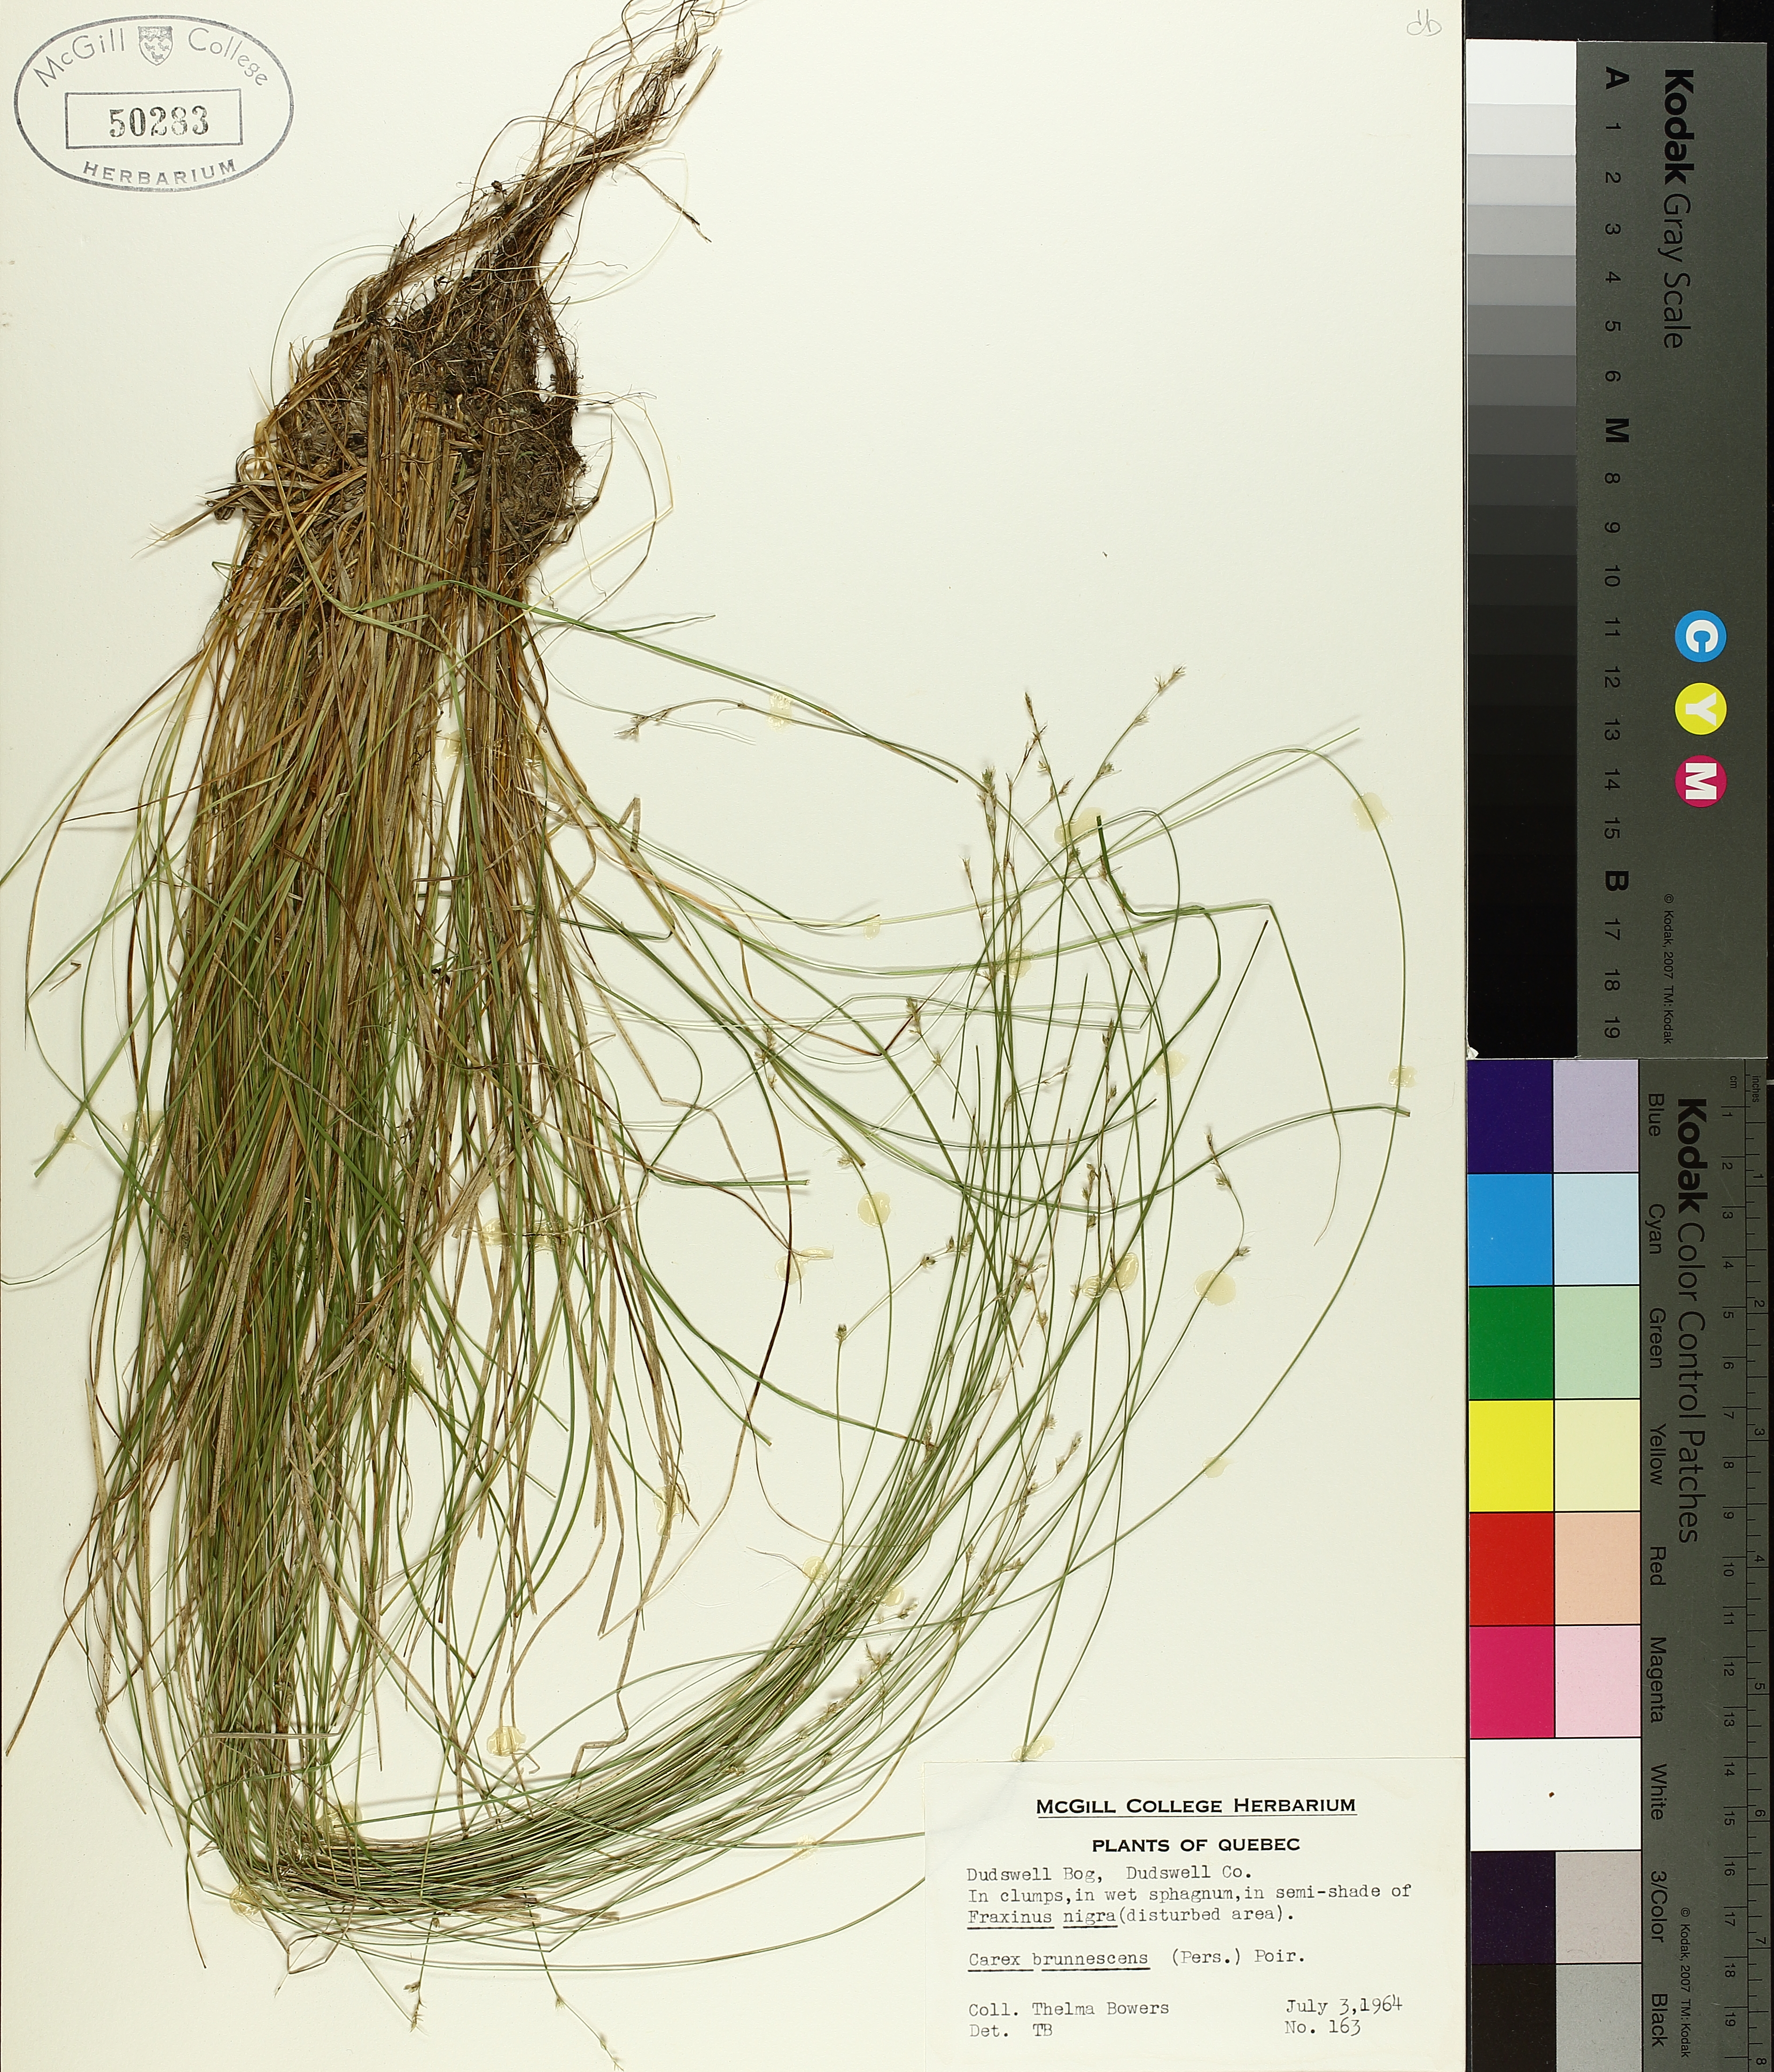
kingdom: Plantae
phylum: Tracheophyta
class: Liliopsida
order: Poales
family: Cyperaceae
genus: Carex
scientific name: Carex brunnescens
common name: Brown sedge
